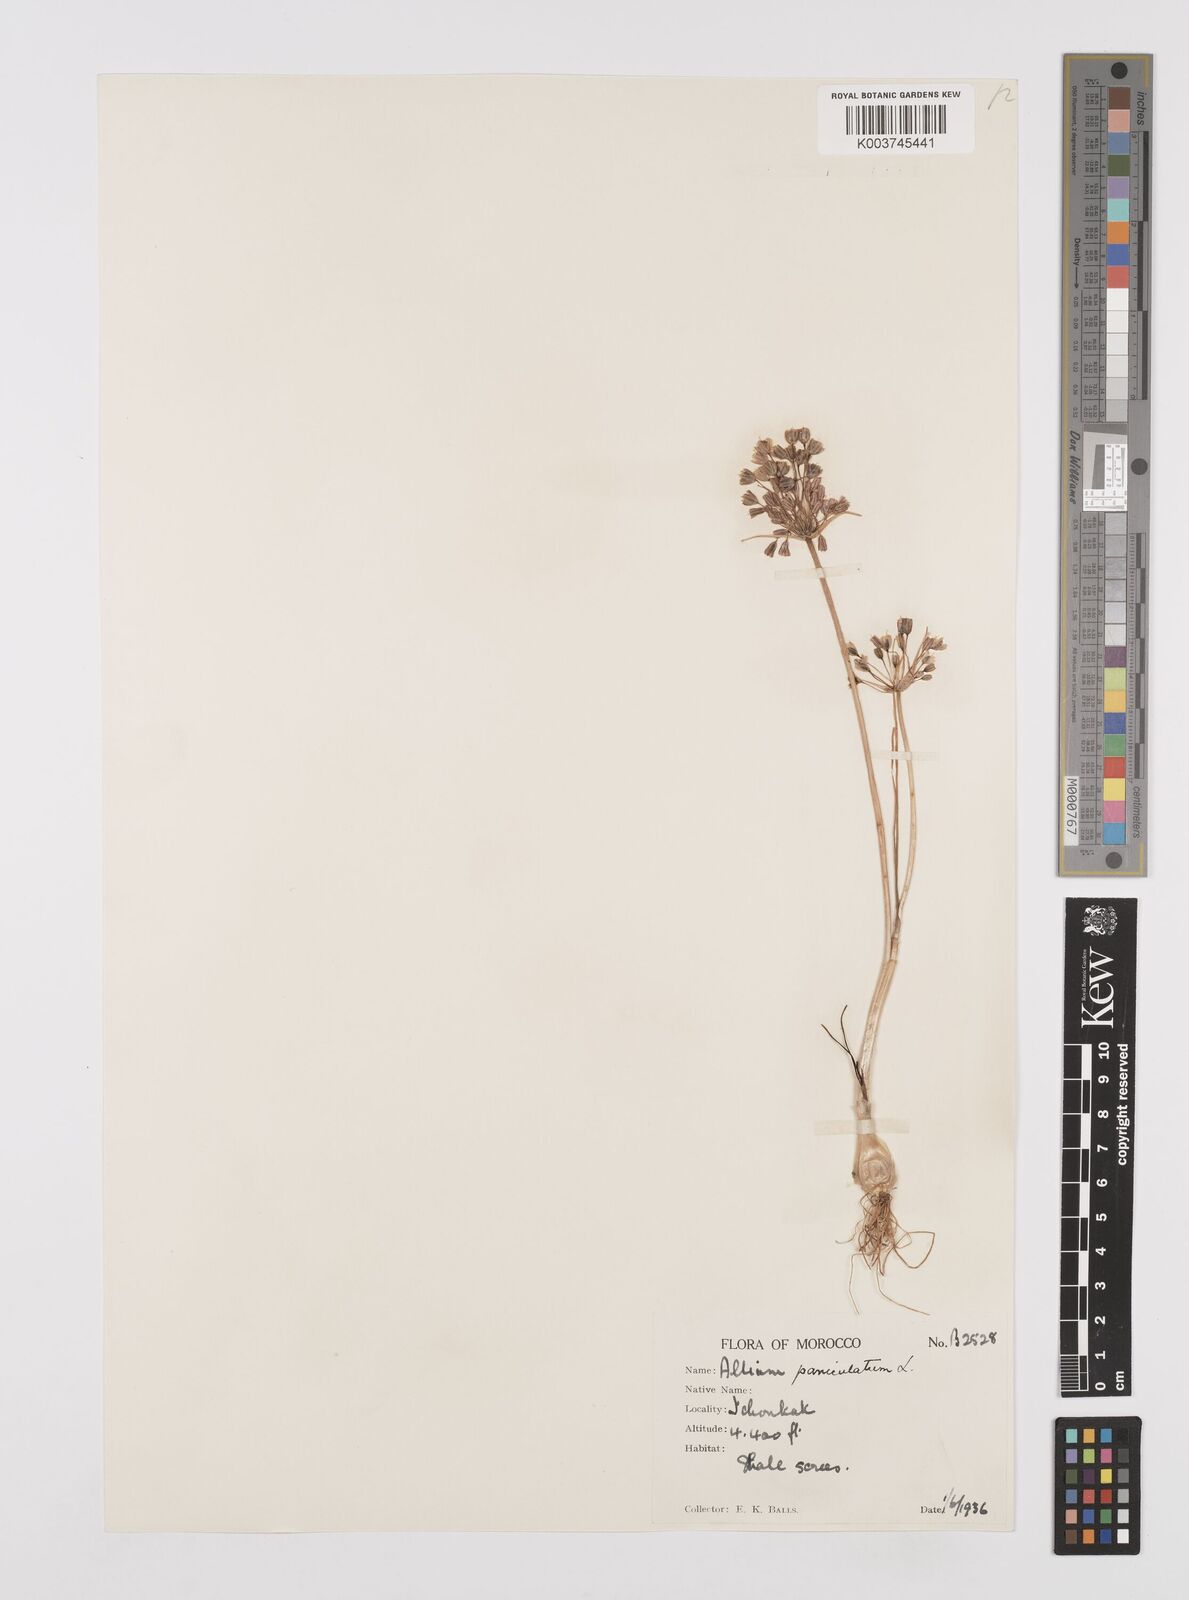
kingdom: Plantae
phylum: Tracheophyta
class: Liliopsida
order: Asparagales
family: Amaryllidaceae
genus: Allium
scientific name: Allium paniculatum
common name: Pale garlic
